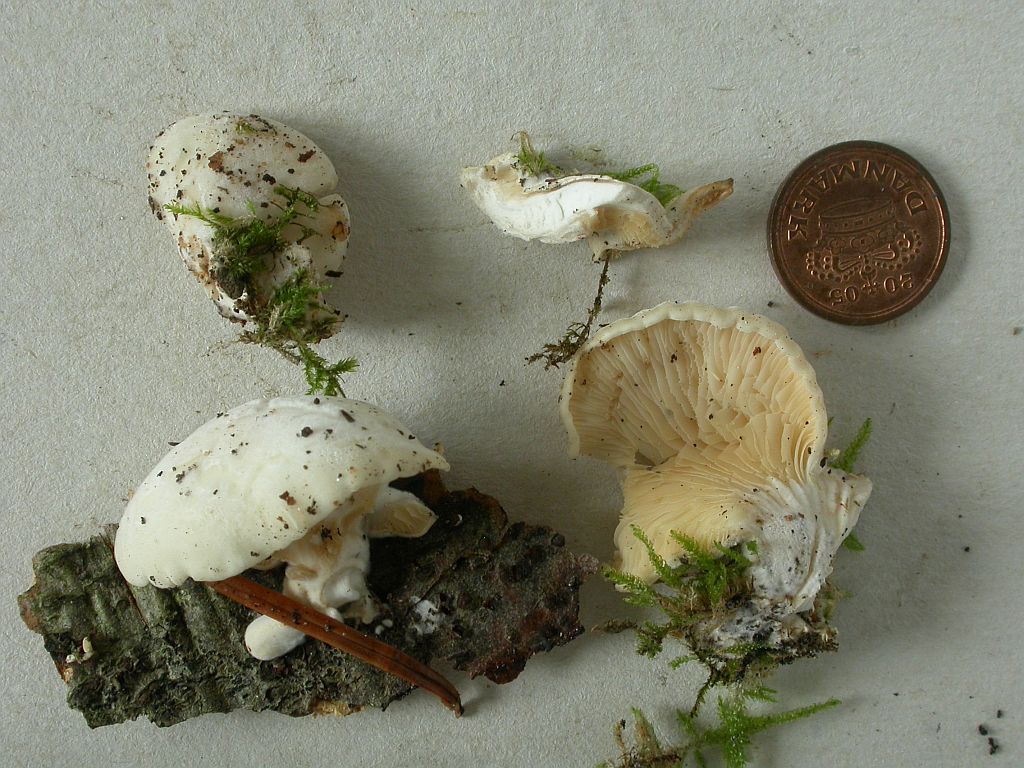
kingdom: Fungi
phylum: Basidiomycota
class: Agaricomycetes
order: Agaricales
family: Pleurotaceae
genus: Hohenbuehelia
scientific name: Hohenbuehelia mastrucata
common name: skællet filthat
